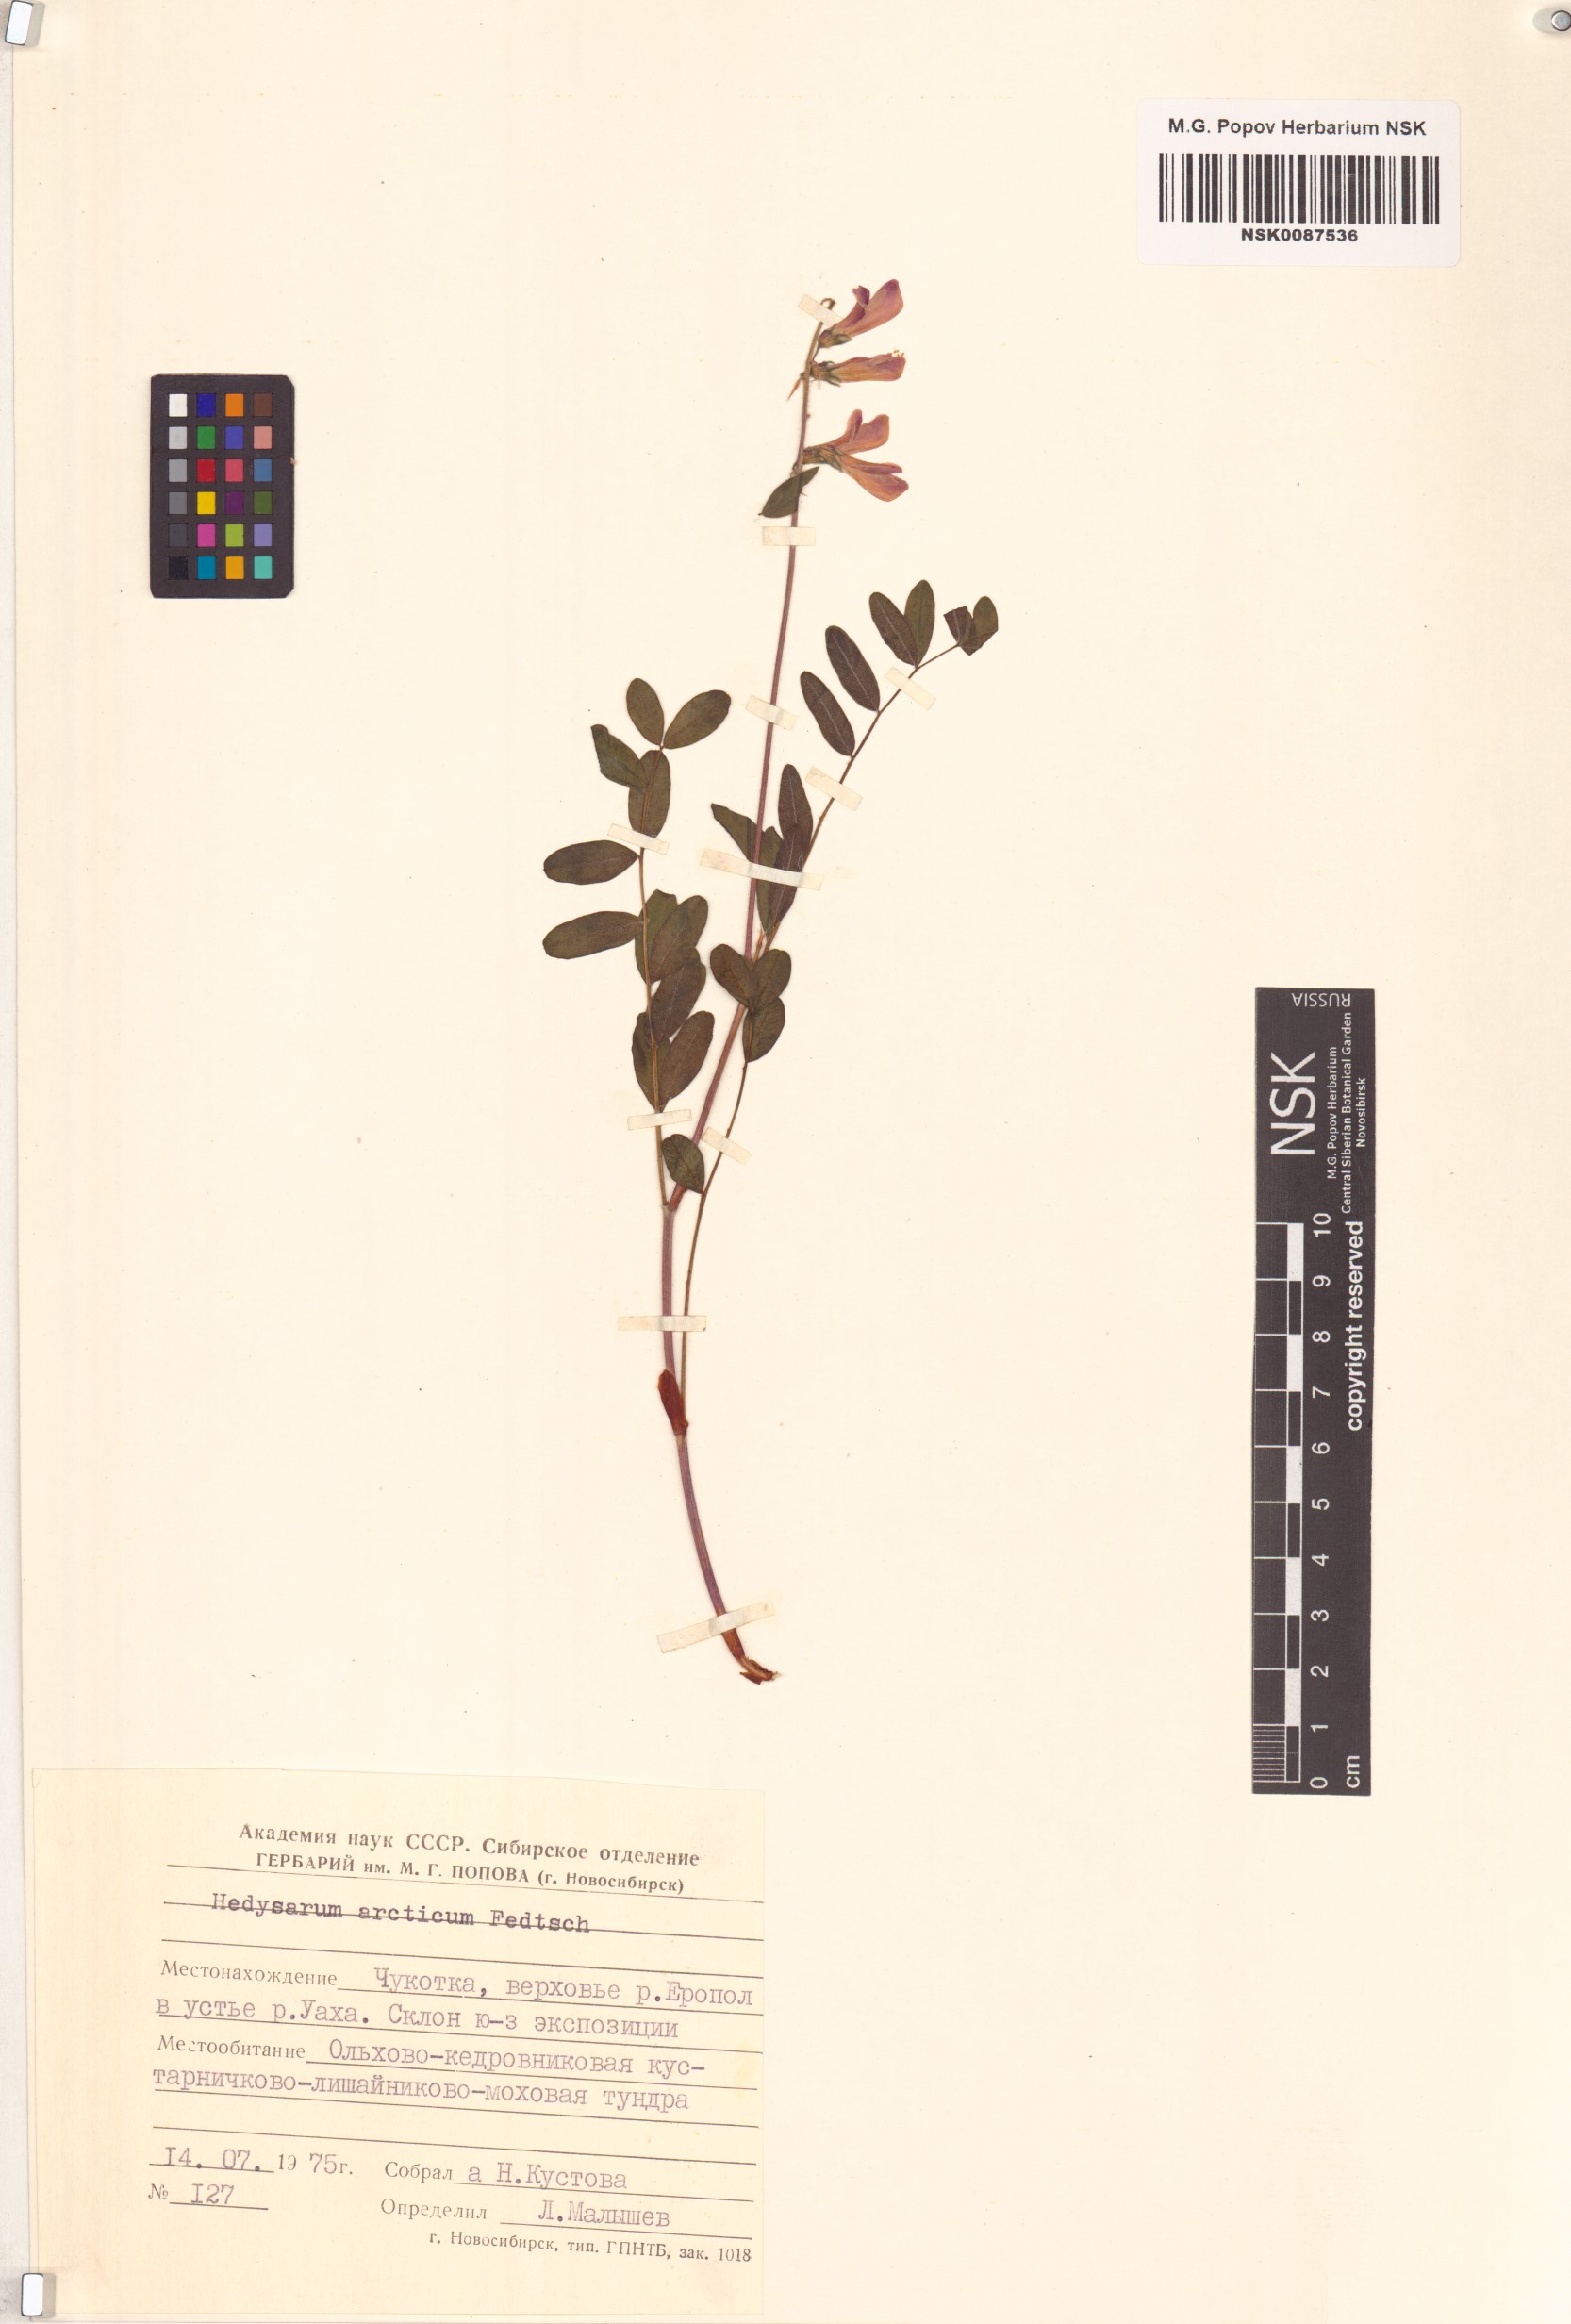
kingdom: Plantae
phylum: Tracheophyta
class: Magnoliopsida
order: Fabales
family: Fabaceae
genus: Hedysarum
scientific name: Hedysarum hedysaroides
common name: Alpine french-honeysuckle
